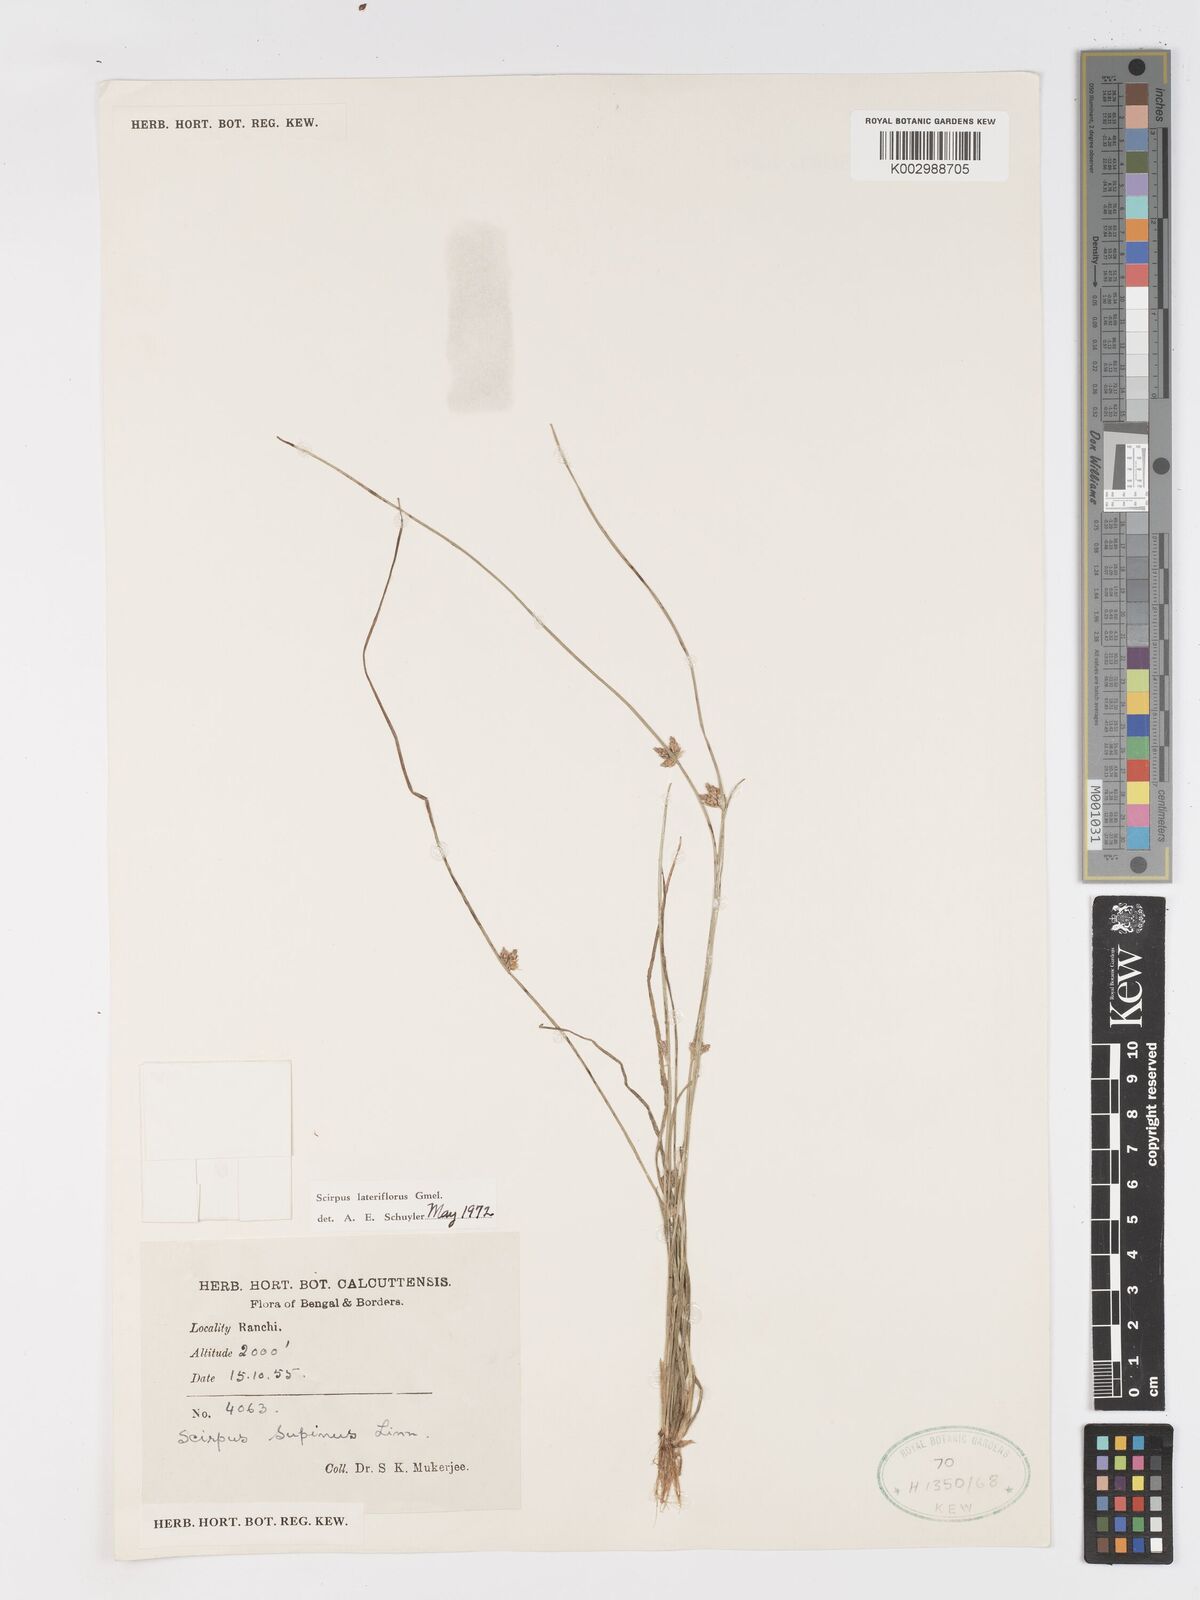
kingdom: Plantae
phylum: Tracheophyta
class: Liliopsida
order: Poales
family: Cyperaceae
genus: Schoenoplectiella
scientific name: Schoenoplectiella lateriflora
